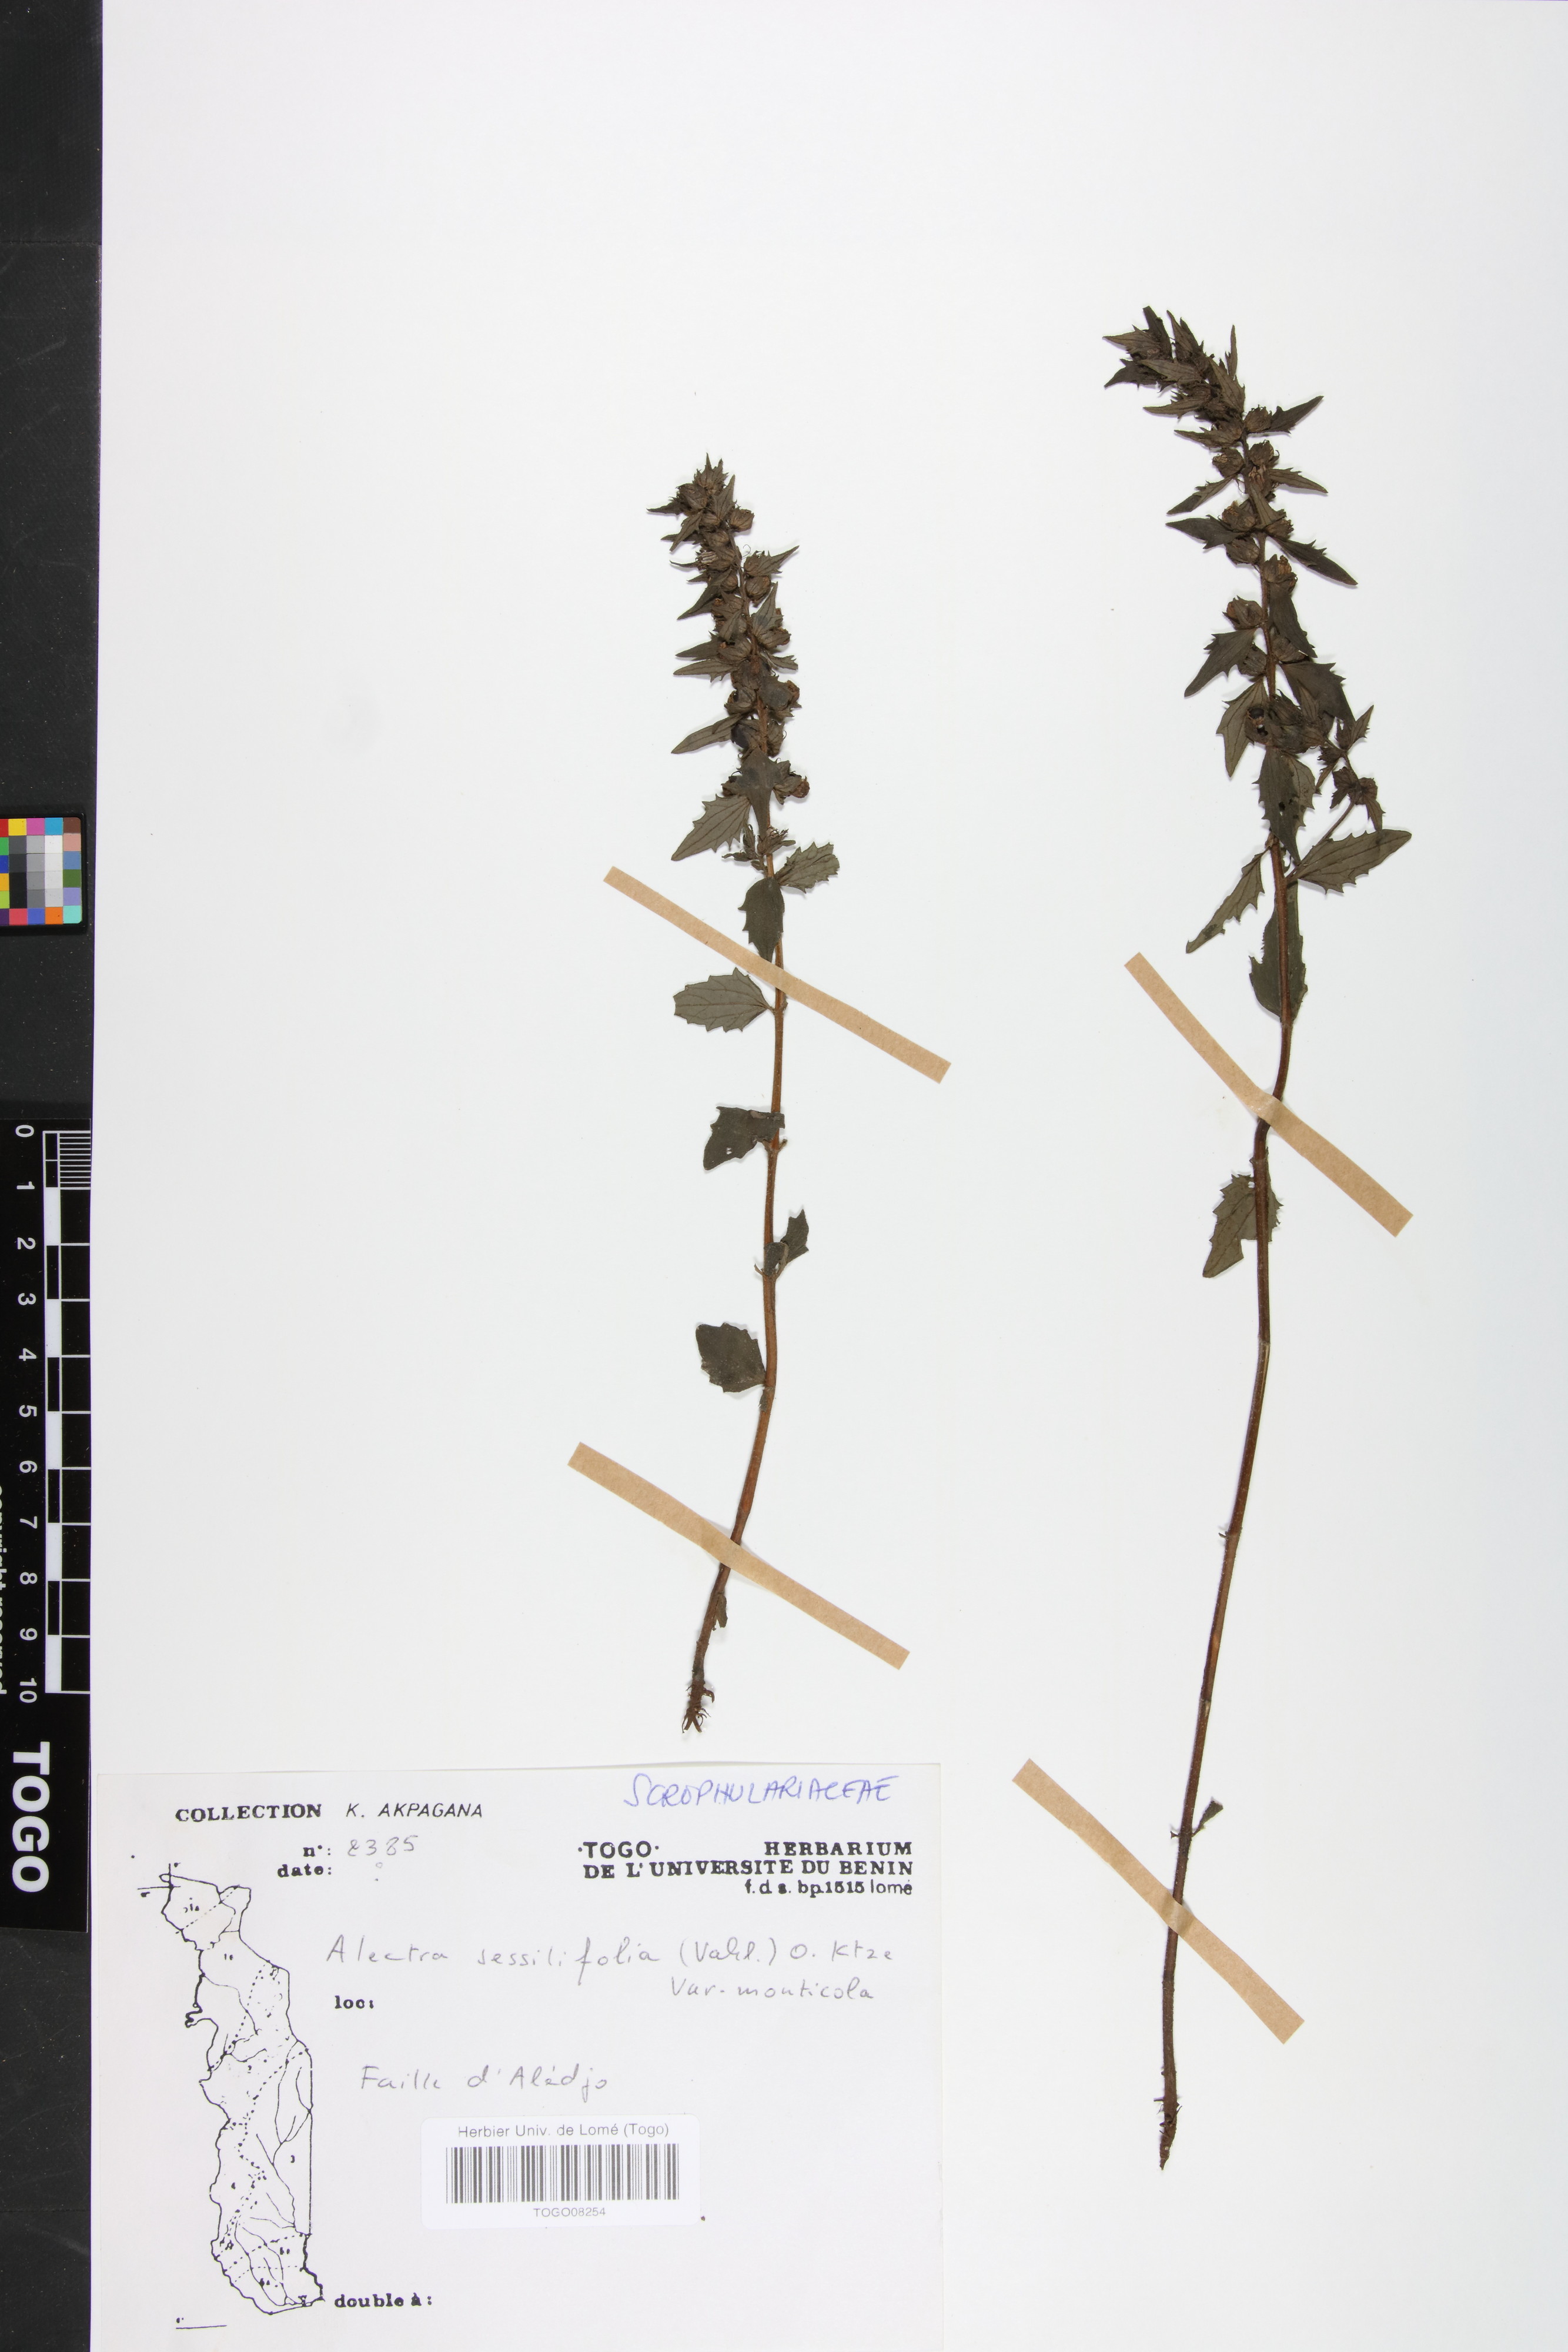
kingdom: Plantae
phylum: Tracheophyta
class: Magnoliopsida
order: Lamiales
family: Orobanchaceae
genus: Alectra
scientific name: Alectra sessiliflora
